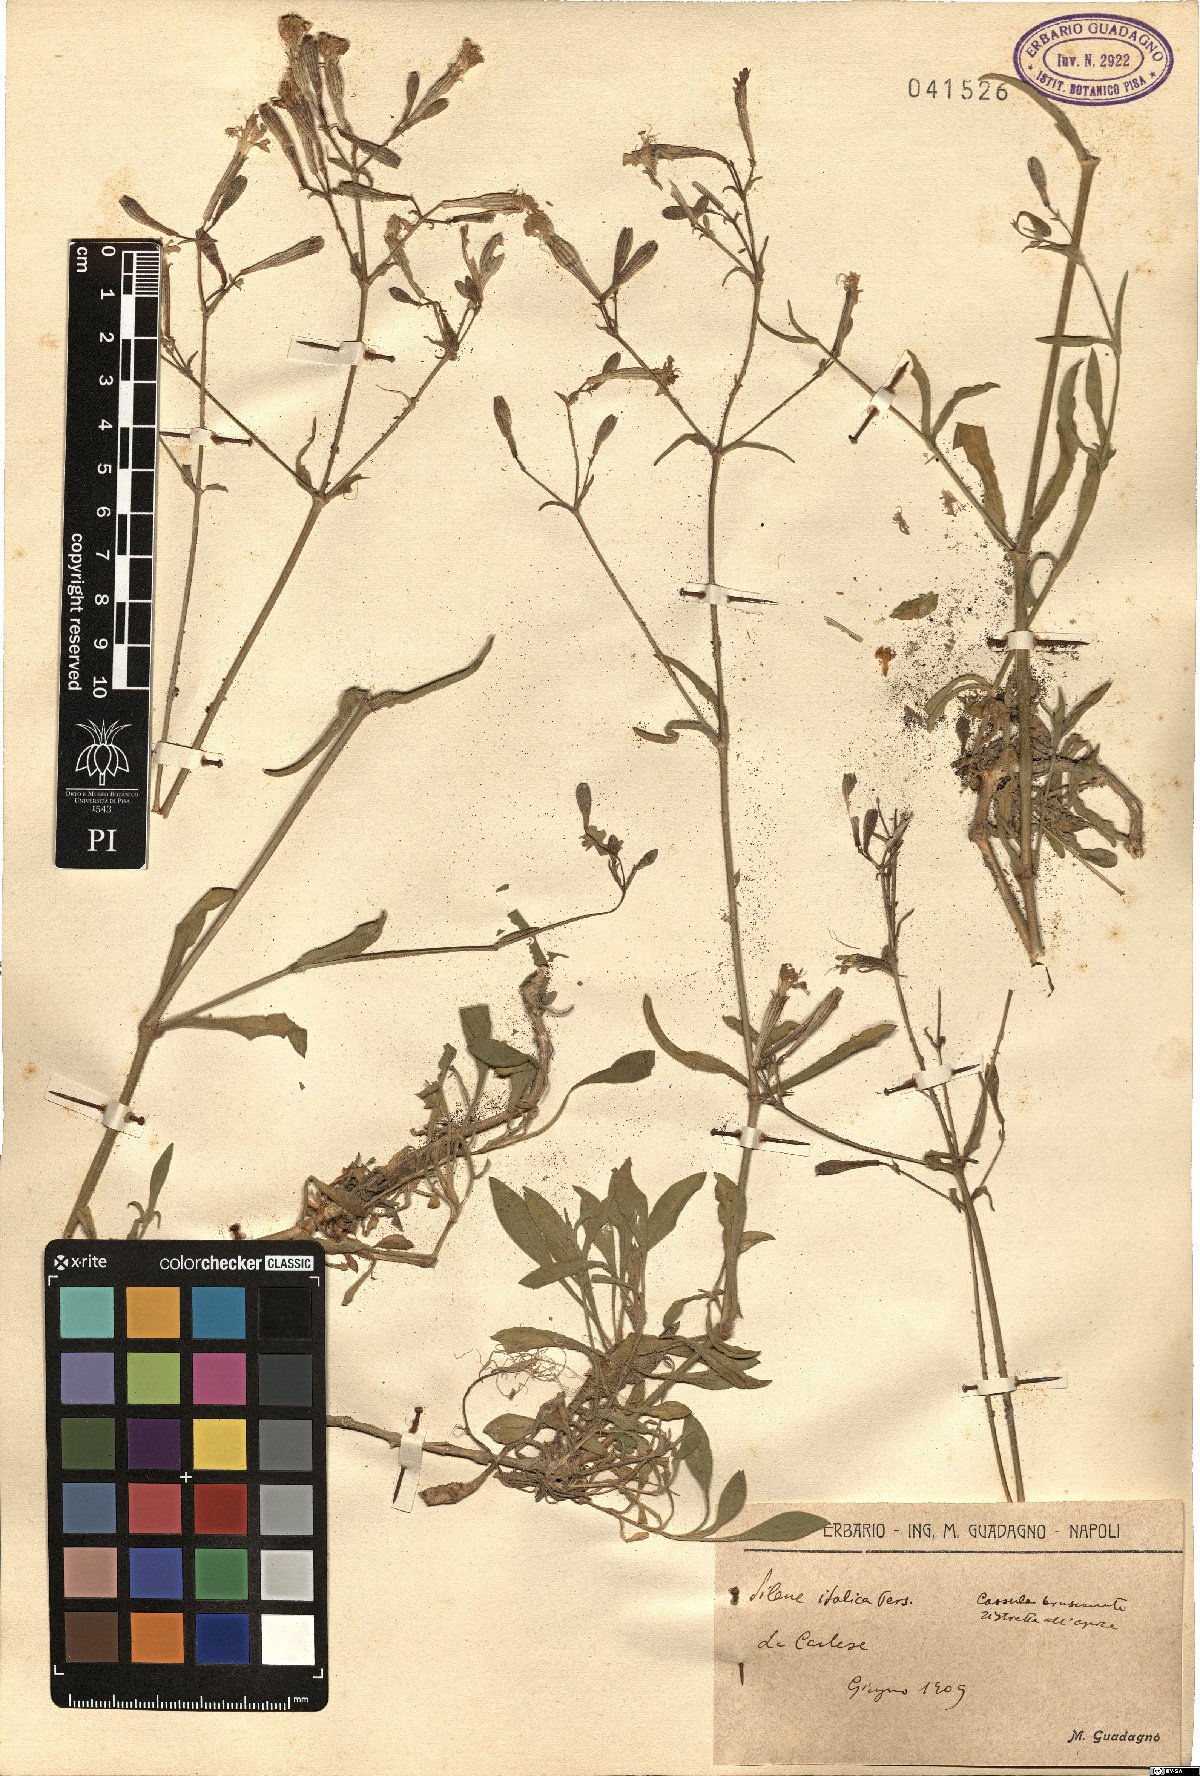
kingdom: Plantae
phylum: Tracheophyta
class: Magnoliopsida
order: Caryophyllales
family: Caryophyllaceae
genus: Silene
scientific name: Silene italica
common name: Italian catchfly
